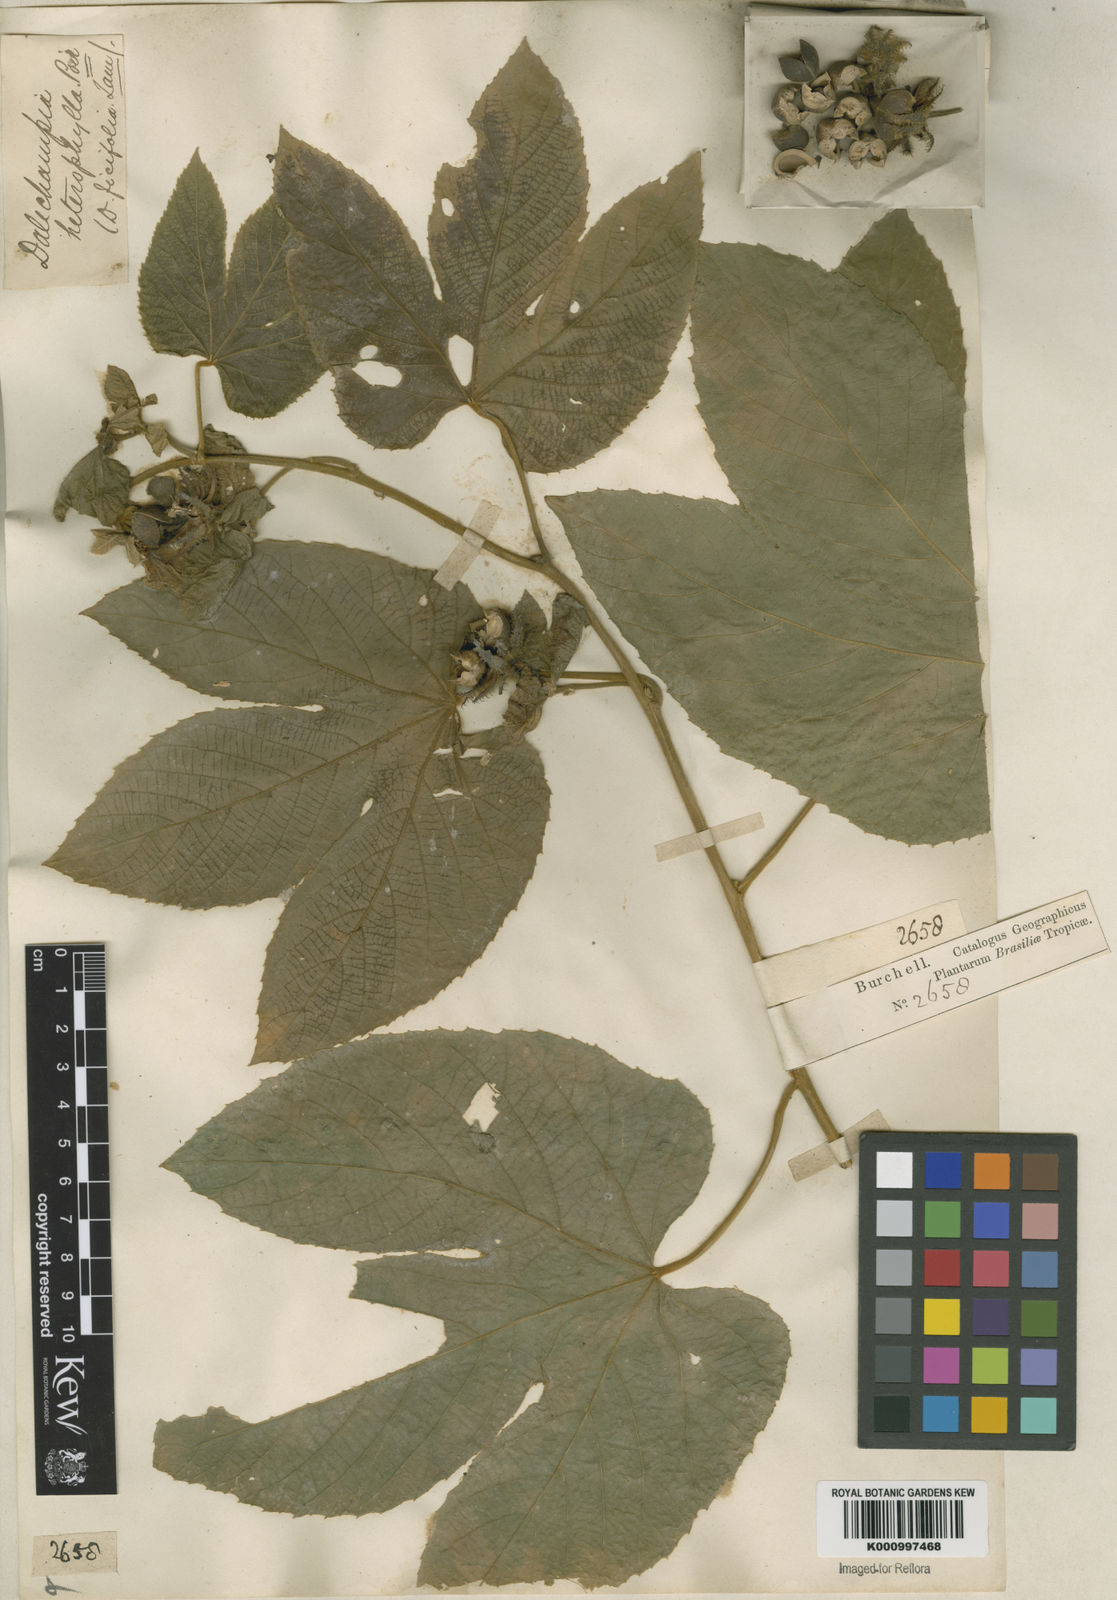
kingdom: Plantae
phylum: Tracheophyta
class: Magnoliopsida
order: Malpighiales
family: Euphorbiaceae
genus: Dalechampia
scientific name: Dalechampia ficifolia
